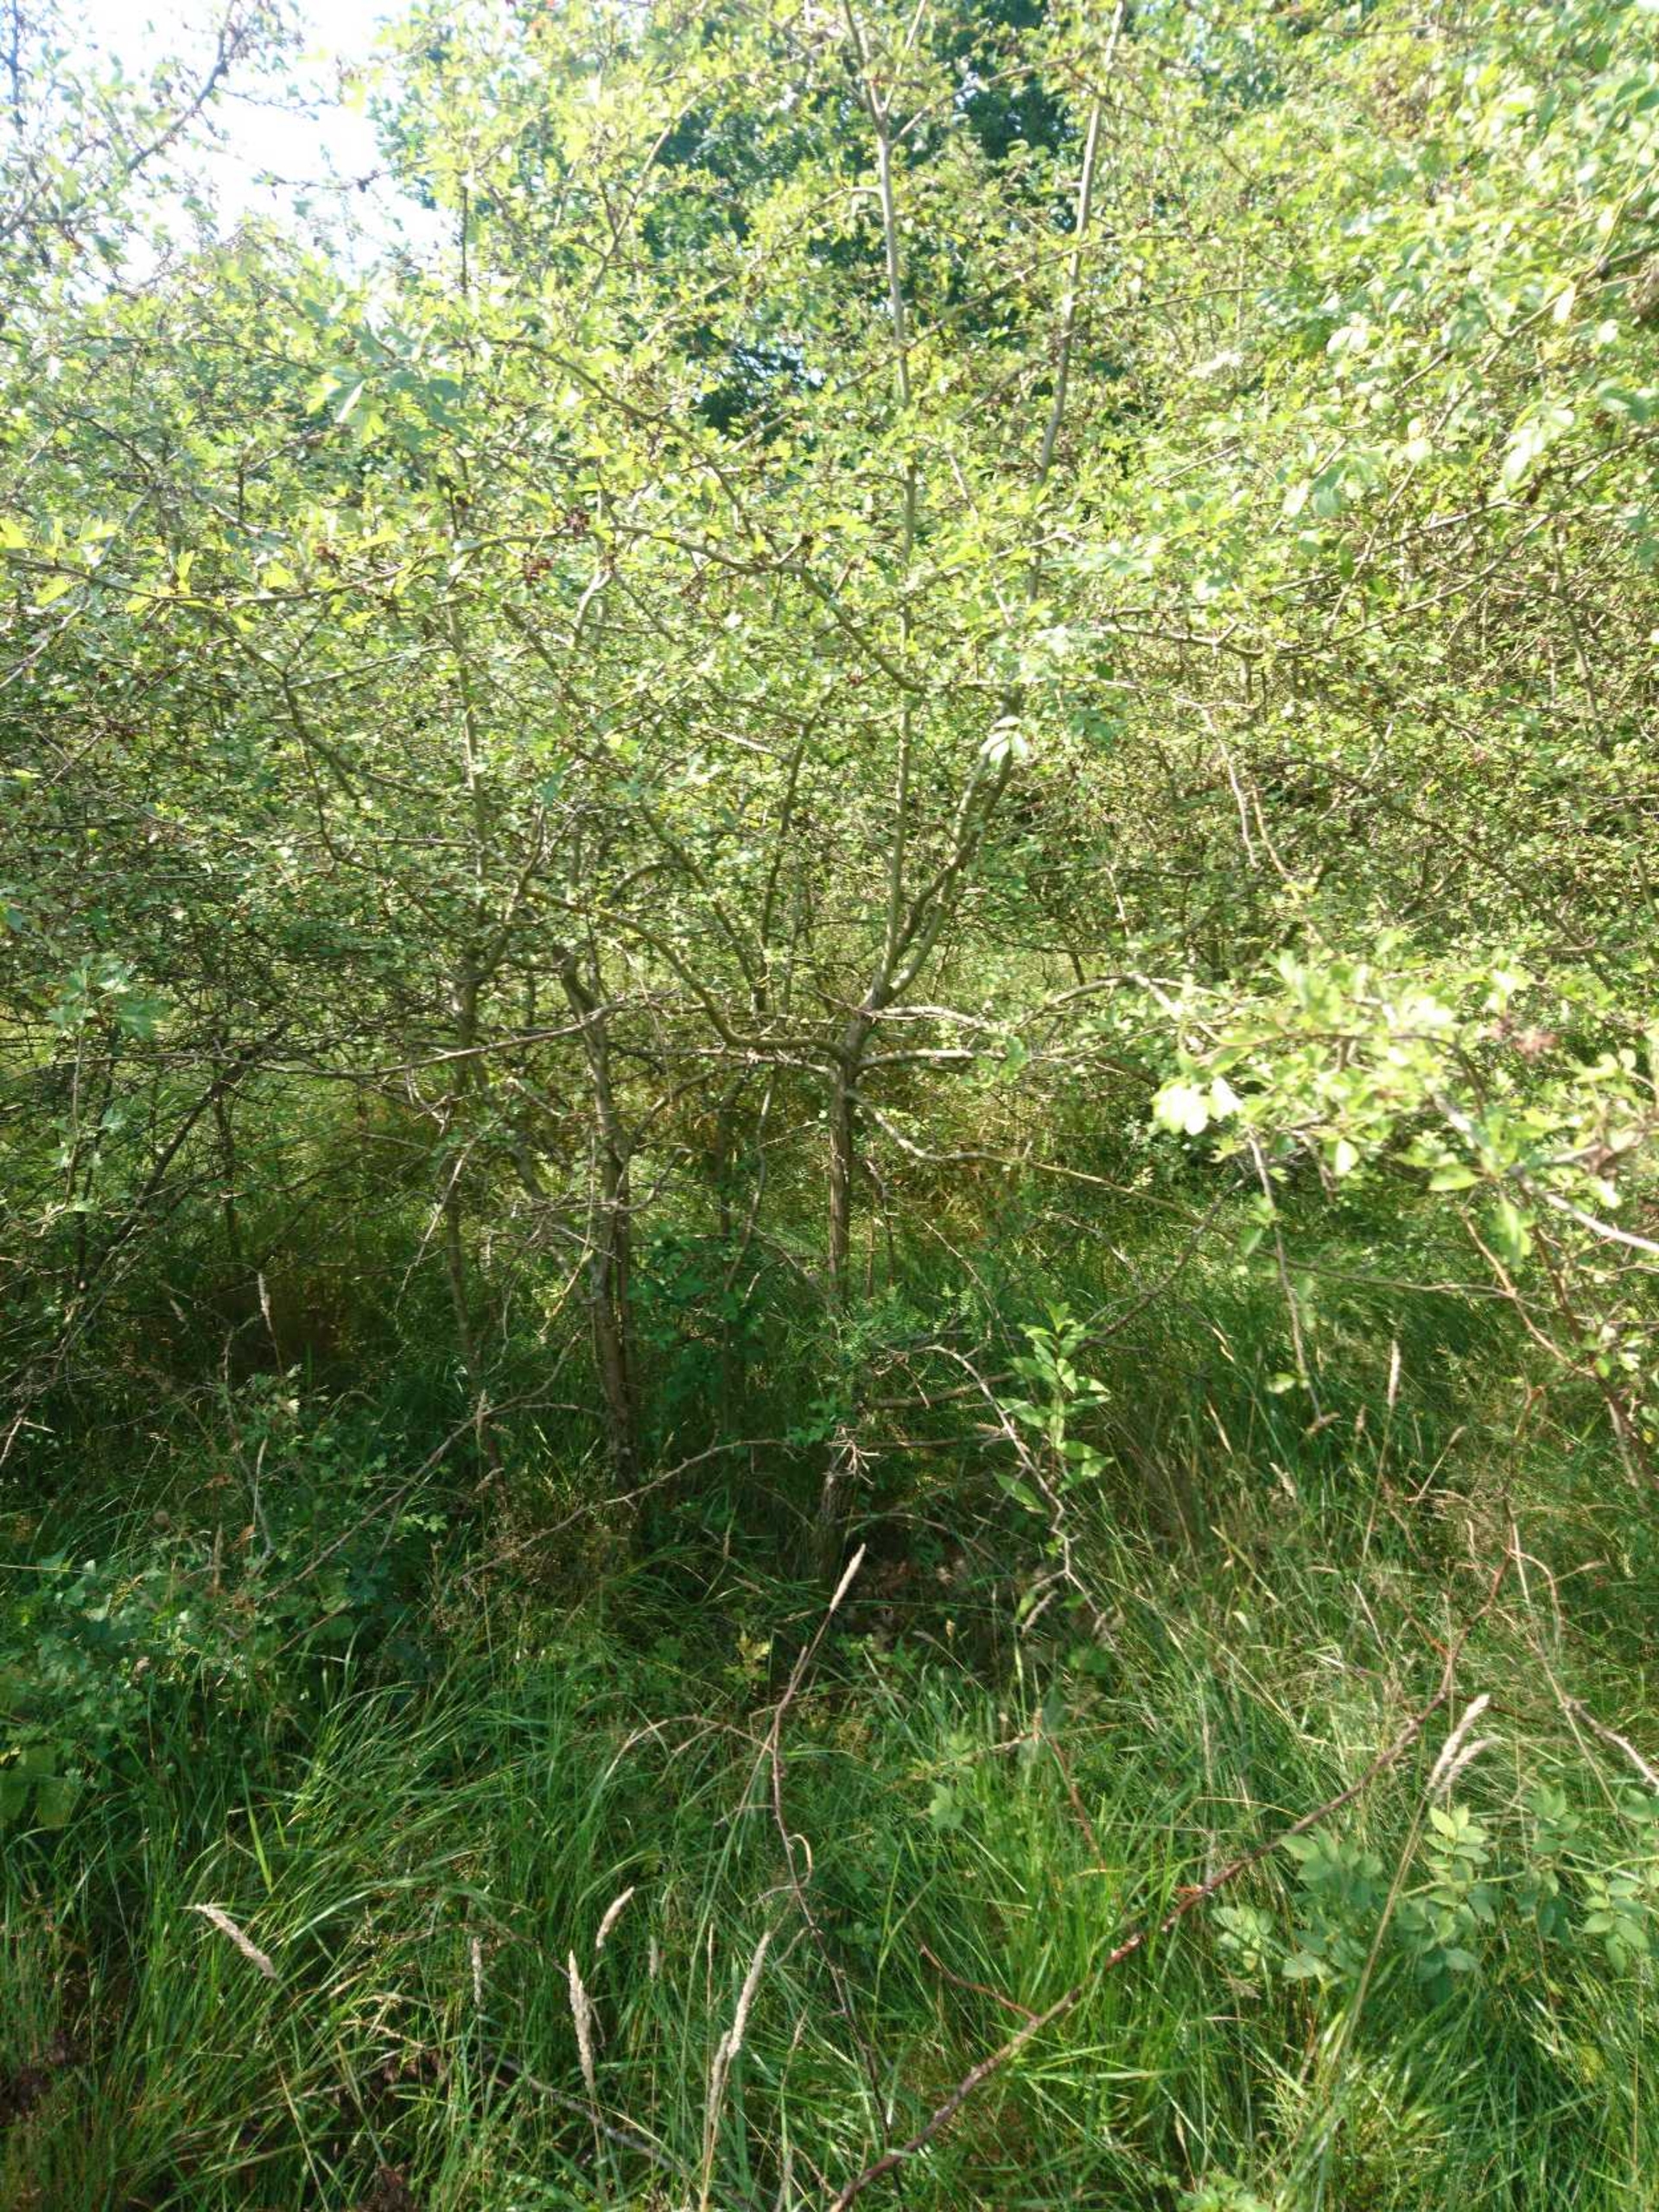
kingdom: Plantae
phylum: Tracheophyta
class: Magnoliopsida
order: Rosales
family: Rosaceae
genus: Crataegus
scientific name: Crataegus monogyna
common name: Engriflet hvidtjørn
